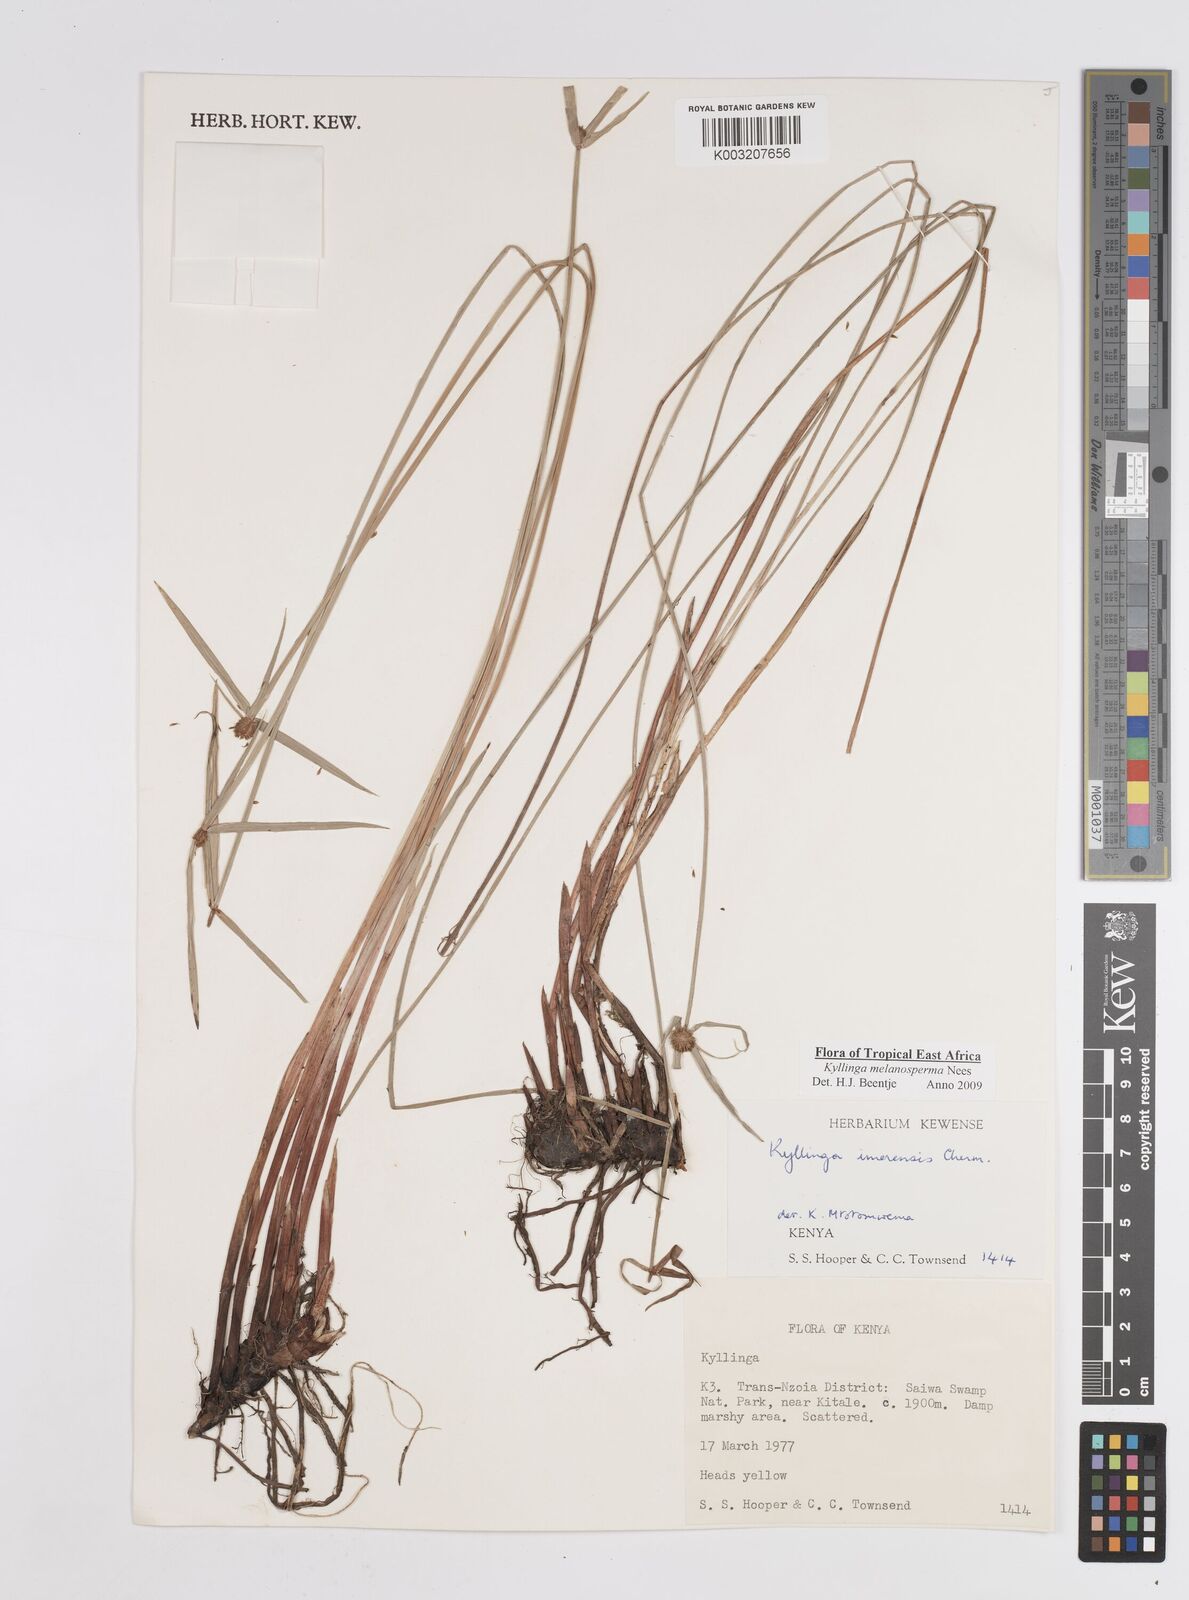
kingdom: Plantae
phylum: Tracheophyta
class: Liliopsida
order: Poales
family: Cyperaceae
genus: Cyperus
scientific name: Cyperus melanospermus
